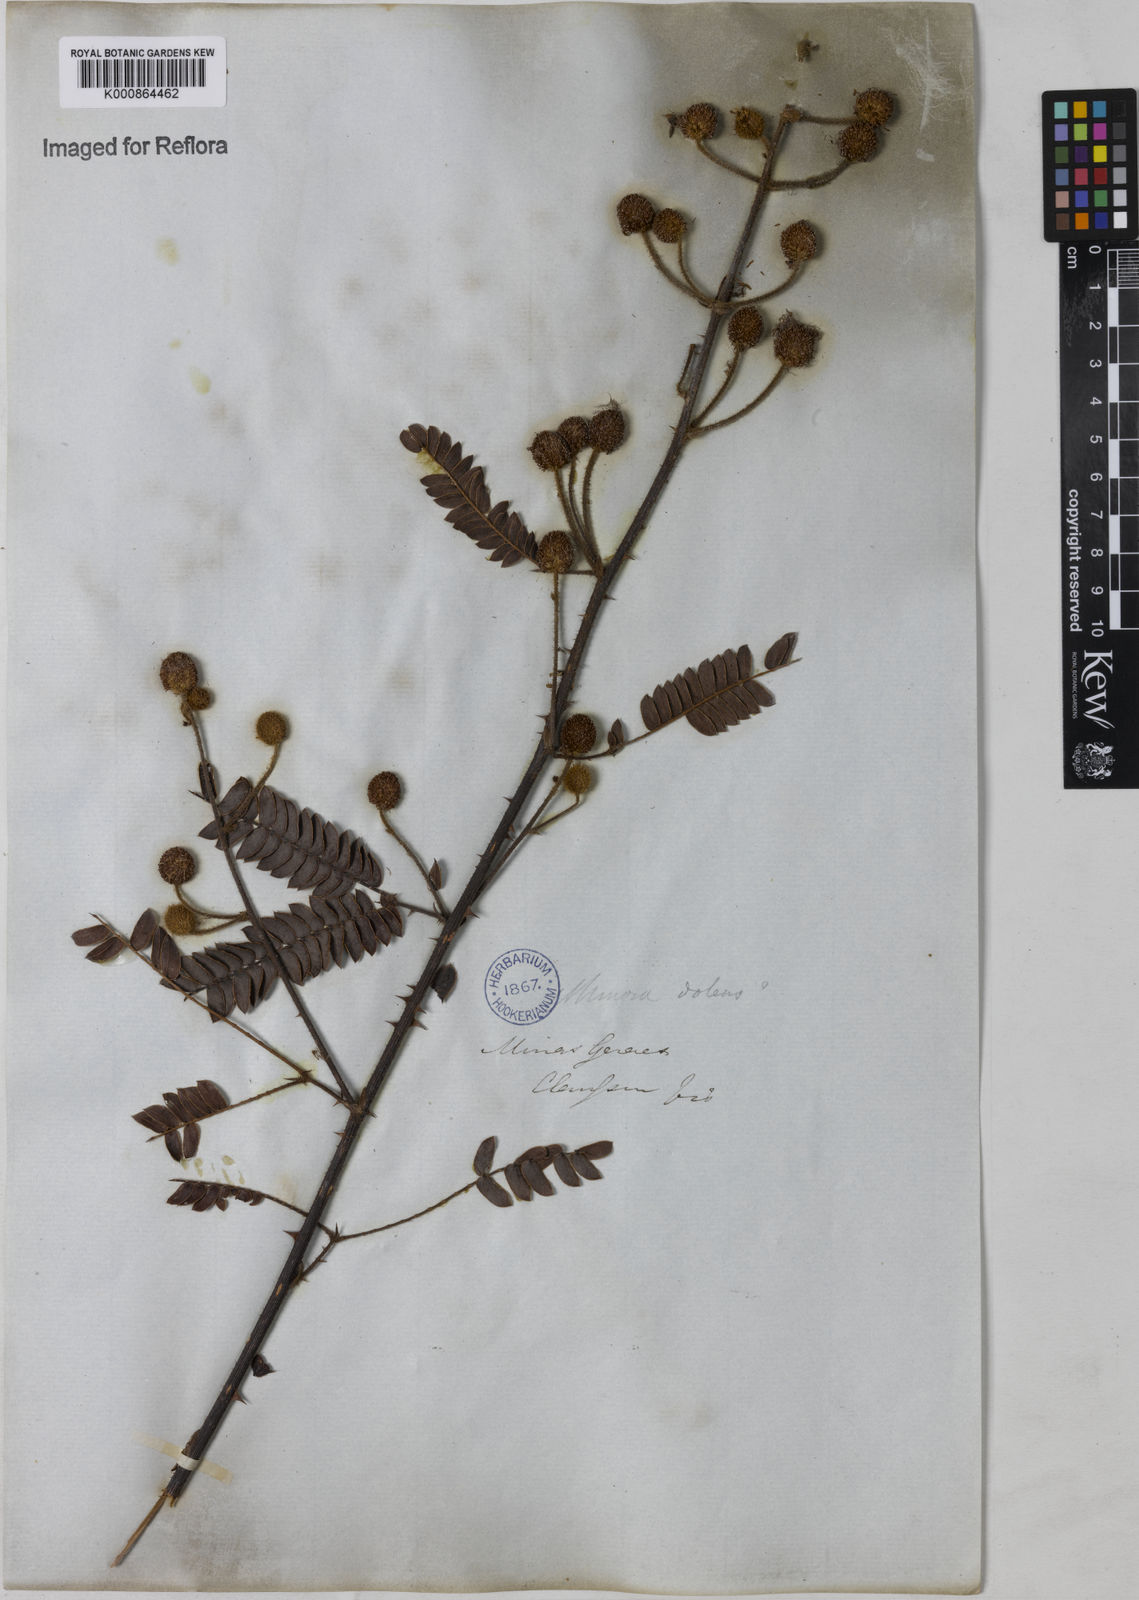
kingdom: Plantae
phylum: Tracheophyta
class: Magnoliopsida
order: Fabales
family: Fabaceae
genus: Mimosa
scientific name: Mimosa dolens
